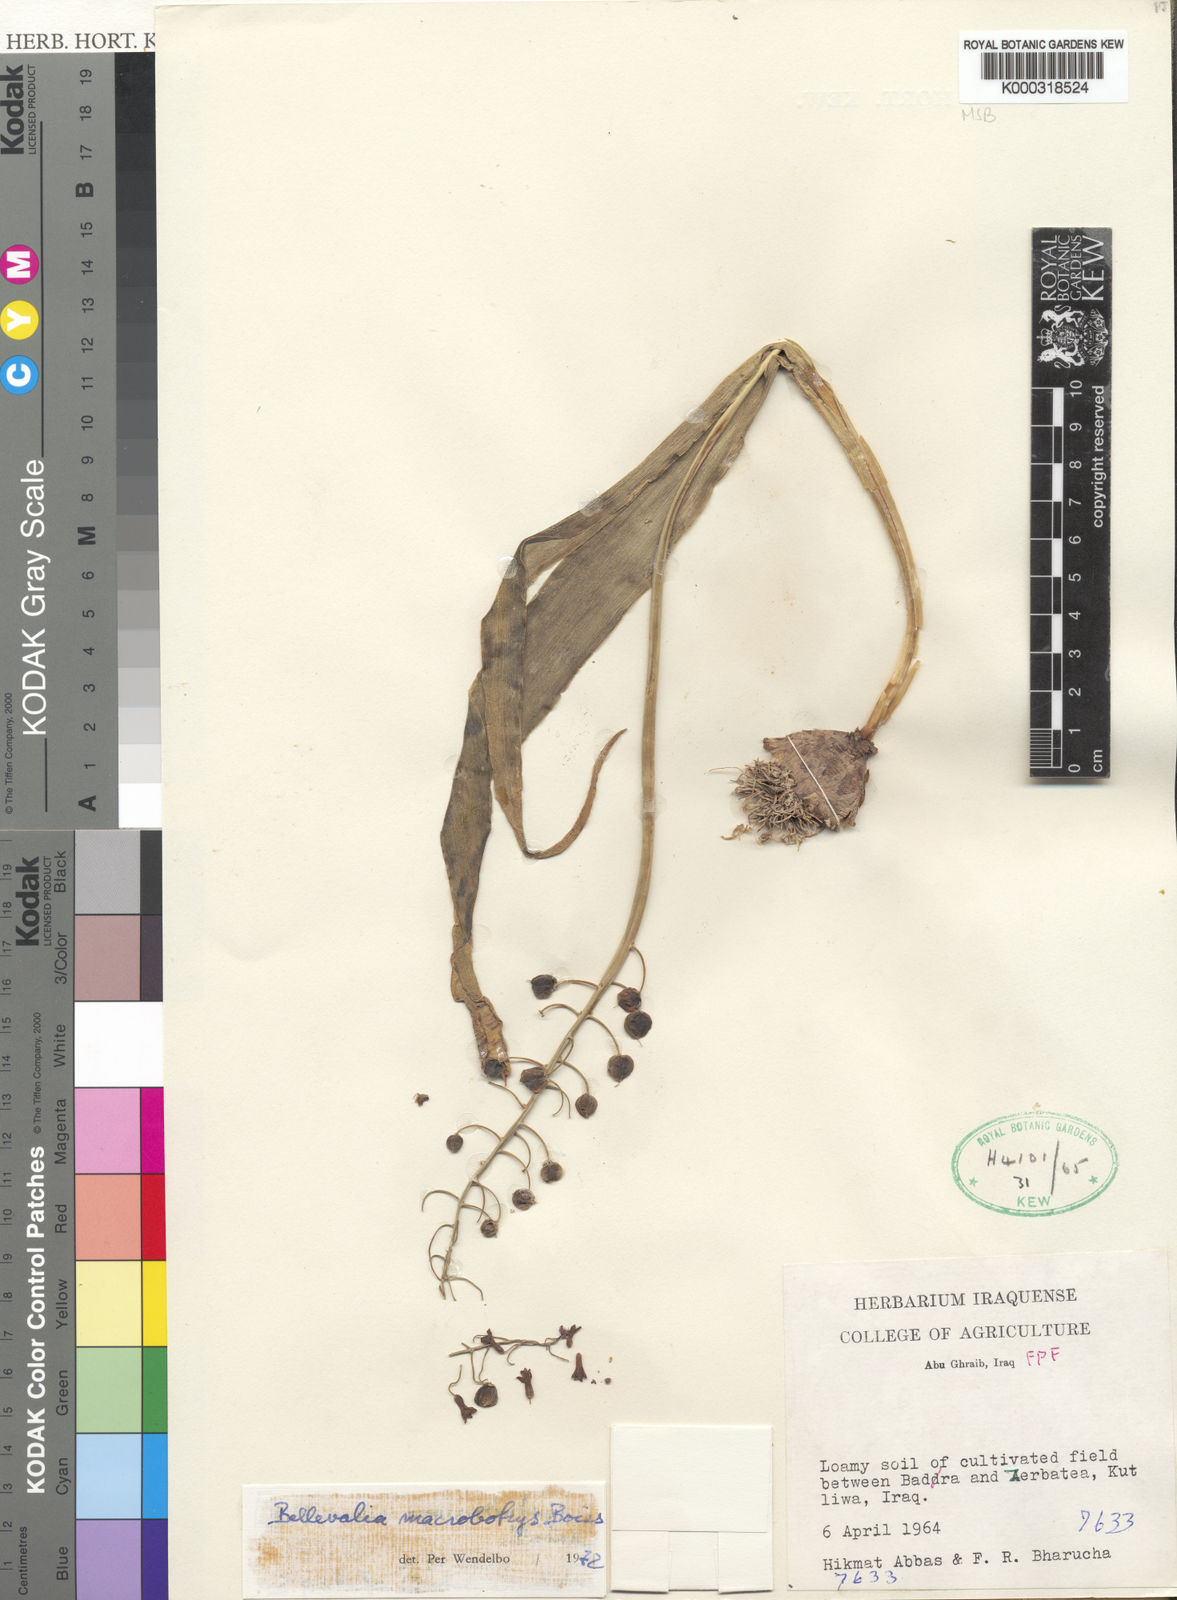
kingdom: Plantae
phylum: Tracheophyta
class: Liliopsida
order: Asparagales
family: Asparagaceae
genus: Bellevalia
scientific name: Bellevalia macrobotrys
